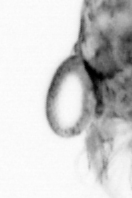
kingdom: Animalia
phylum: Arthropoda
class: Copepoda
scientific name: Copepoda
